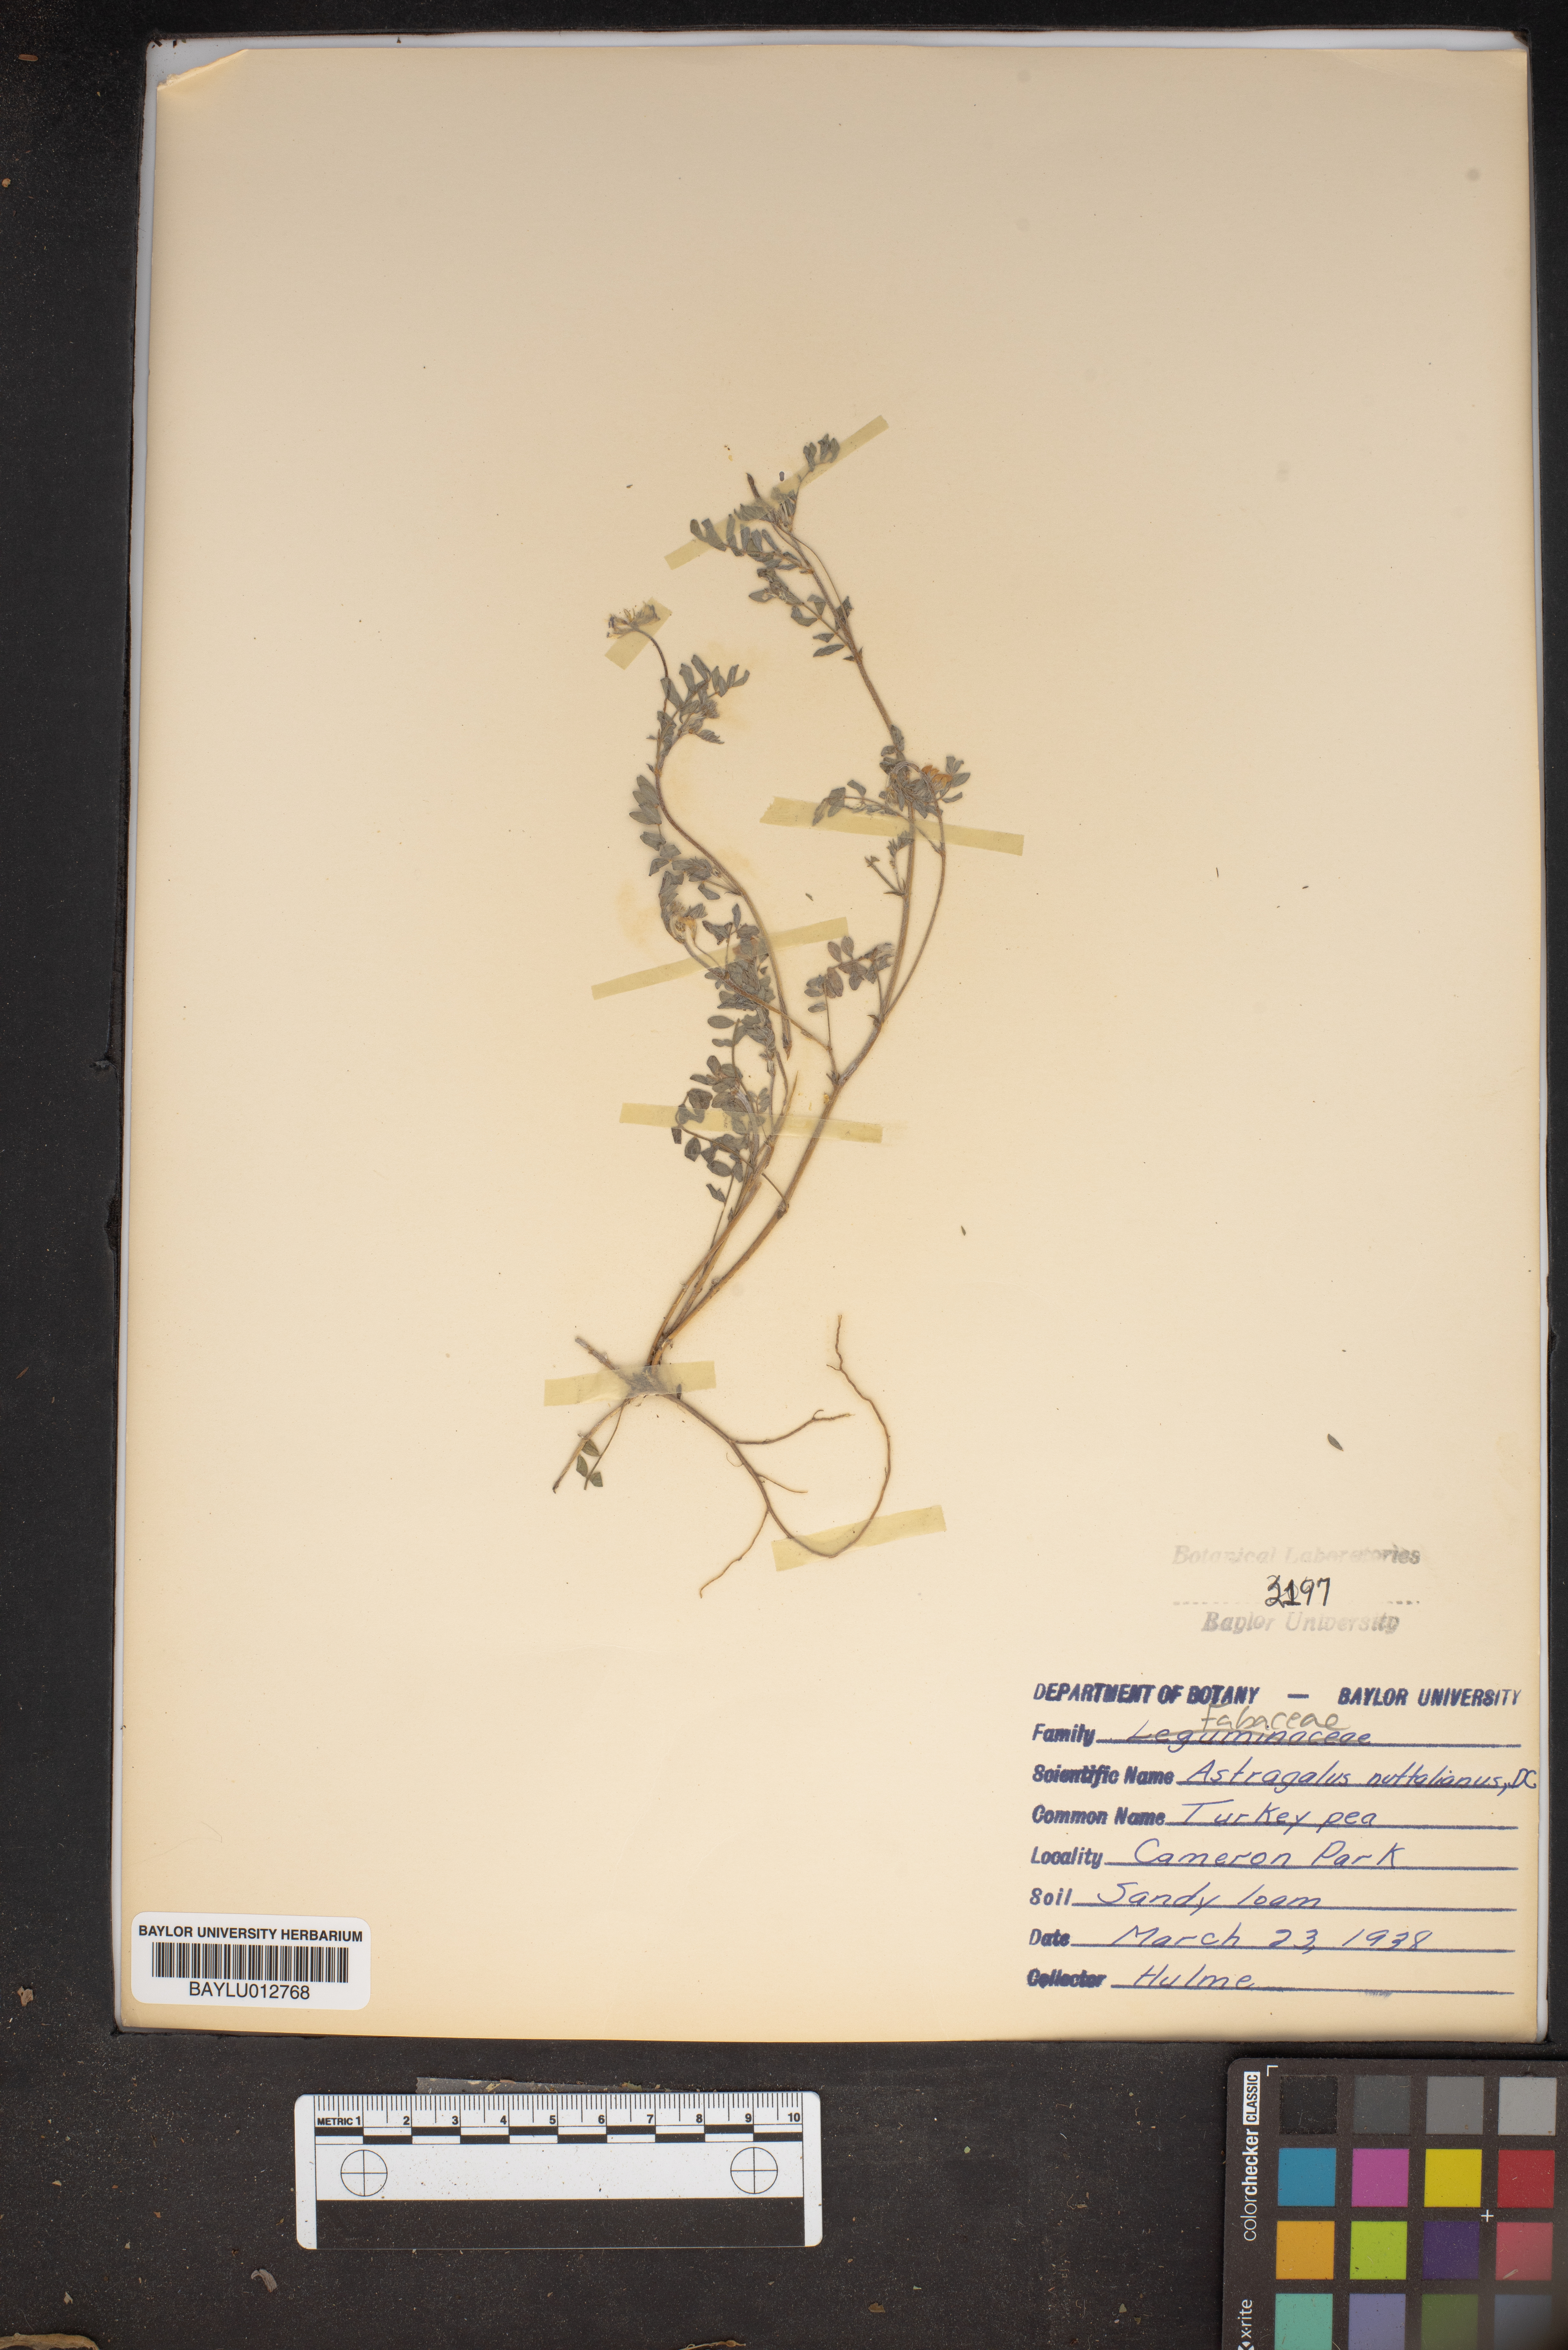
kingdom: Plantae
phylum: Tracheophyta
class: Magnoliopsida
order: Fabales
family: Fabaceae
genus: Astragalus
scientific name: Astragalus nuttallianus
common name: Smallflowered milkvetch
